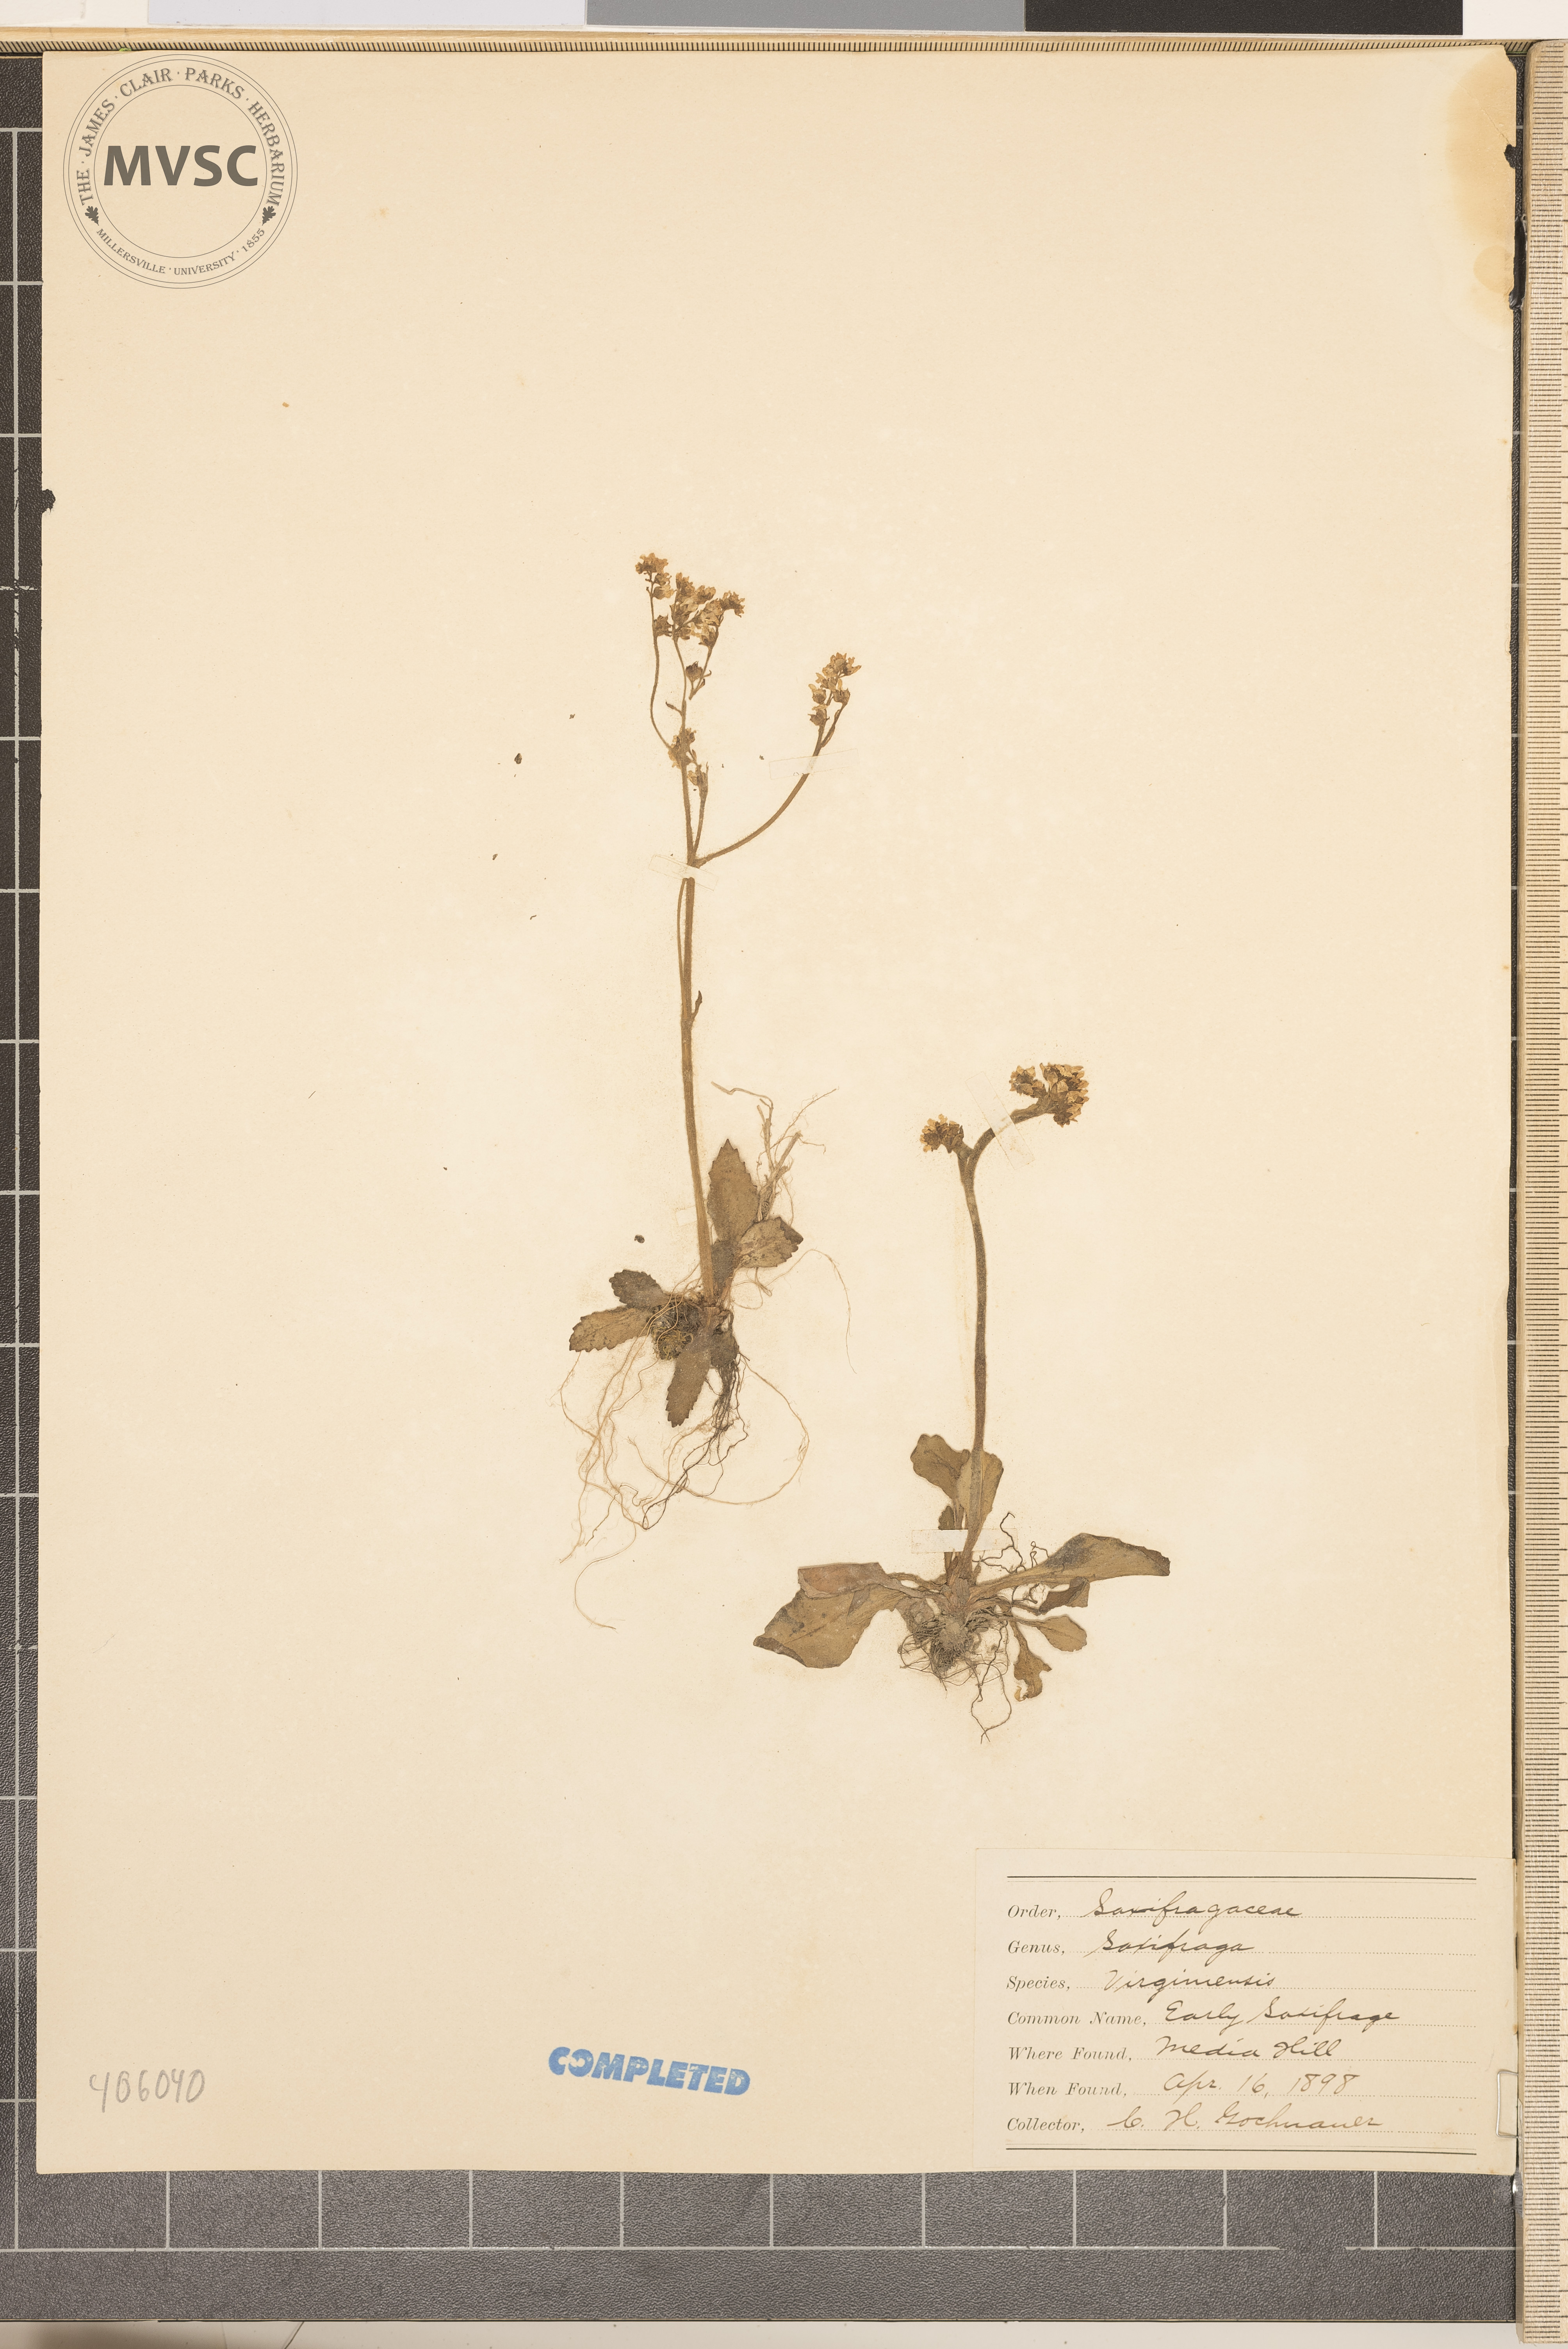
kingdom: Plantae
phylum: Tracheophyta
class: Magnoliopsida
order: Saxifragales
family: Saxifragaceae
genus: Micranthes
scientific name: Micranthes virginiensis
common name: Early saxifrage
